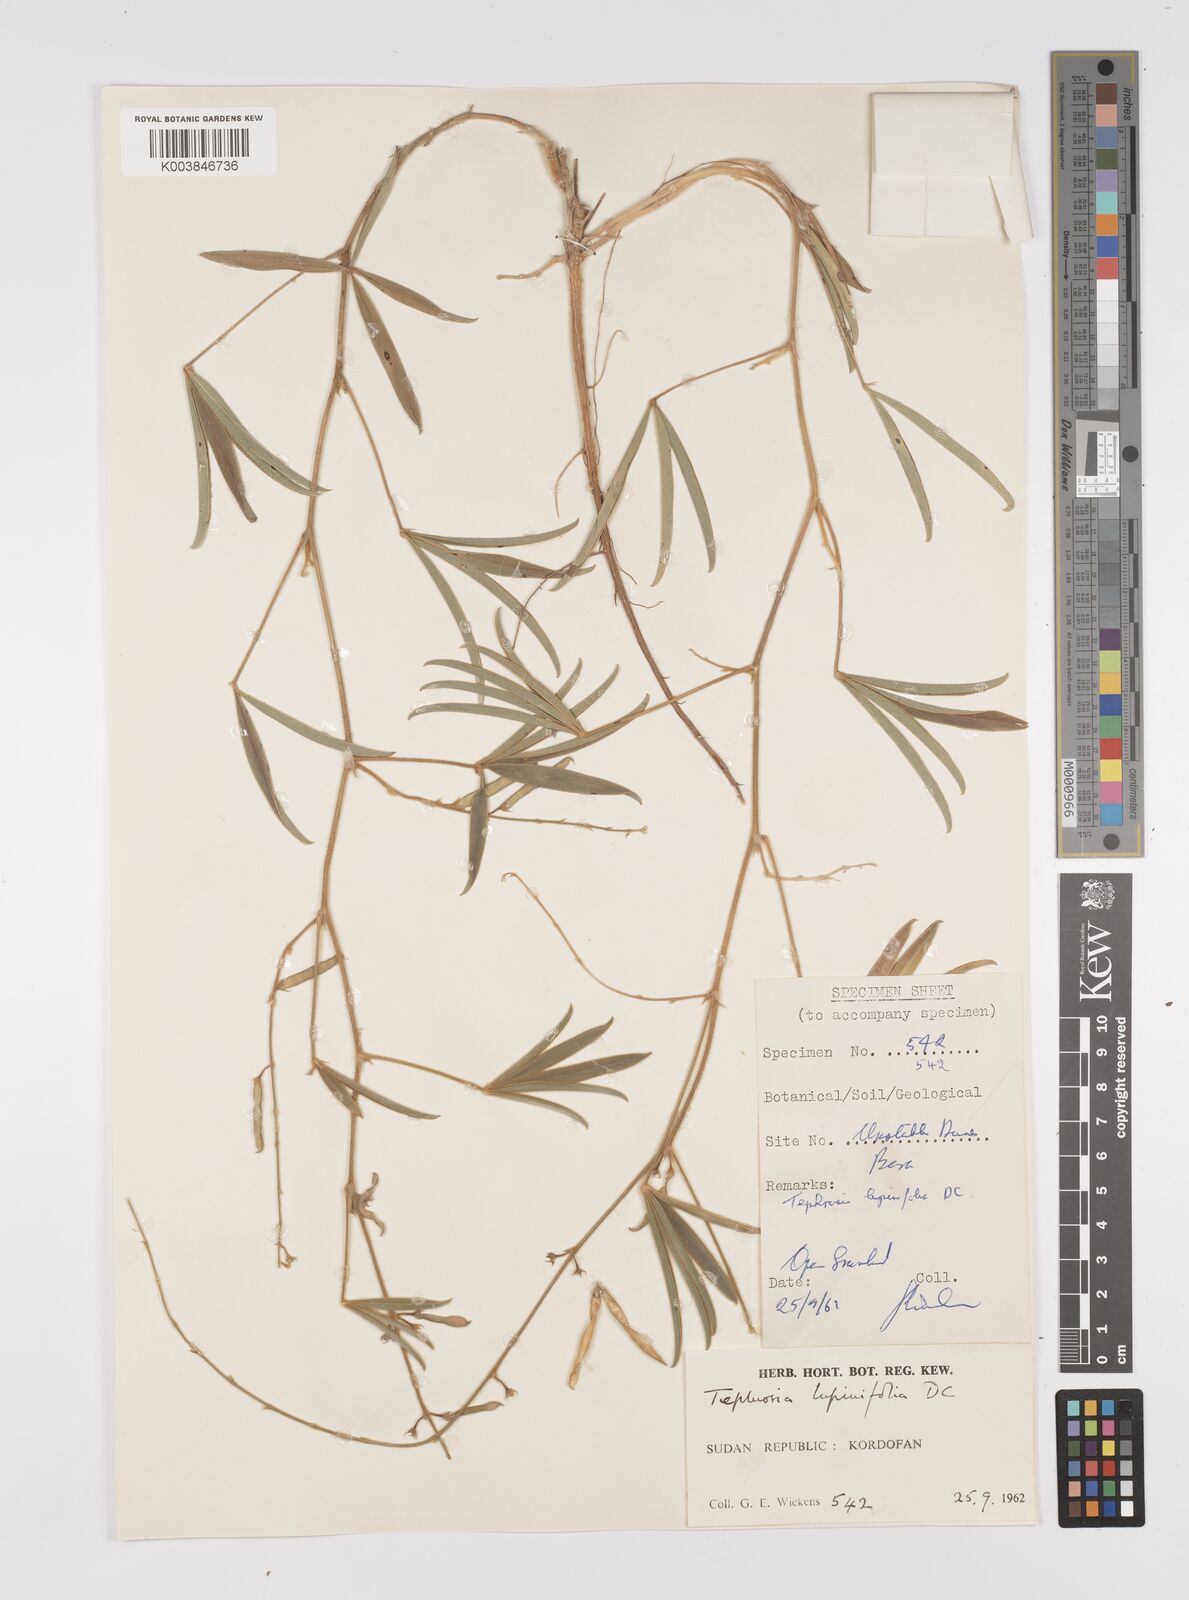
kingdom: Plantae
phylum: Tracheophyta
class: Magnoliopsida
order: Fabales
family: Fabaceae
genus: Tephrosia
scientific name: Tephrosia lupinifolia
